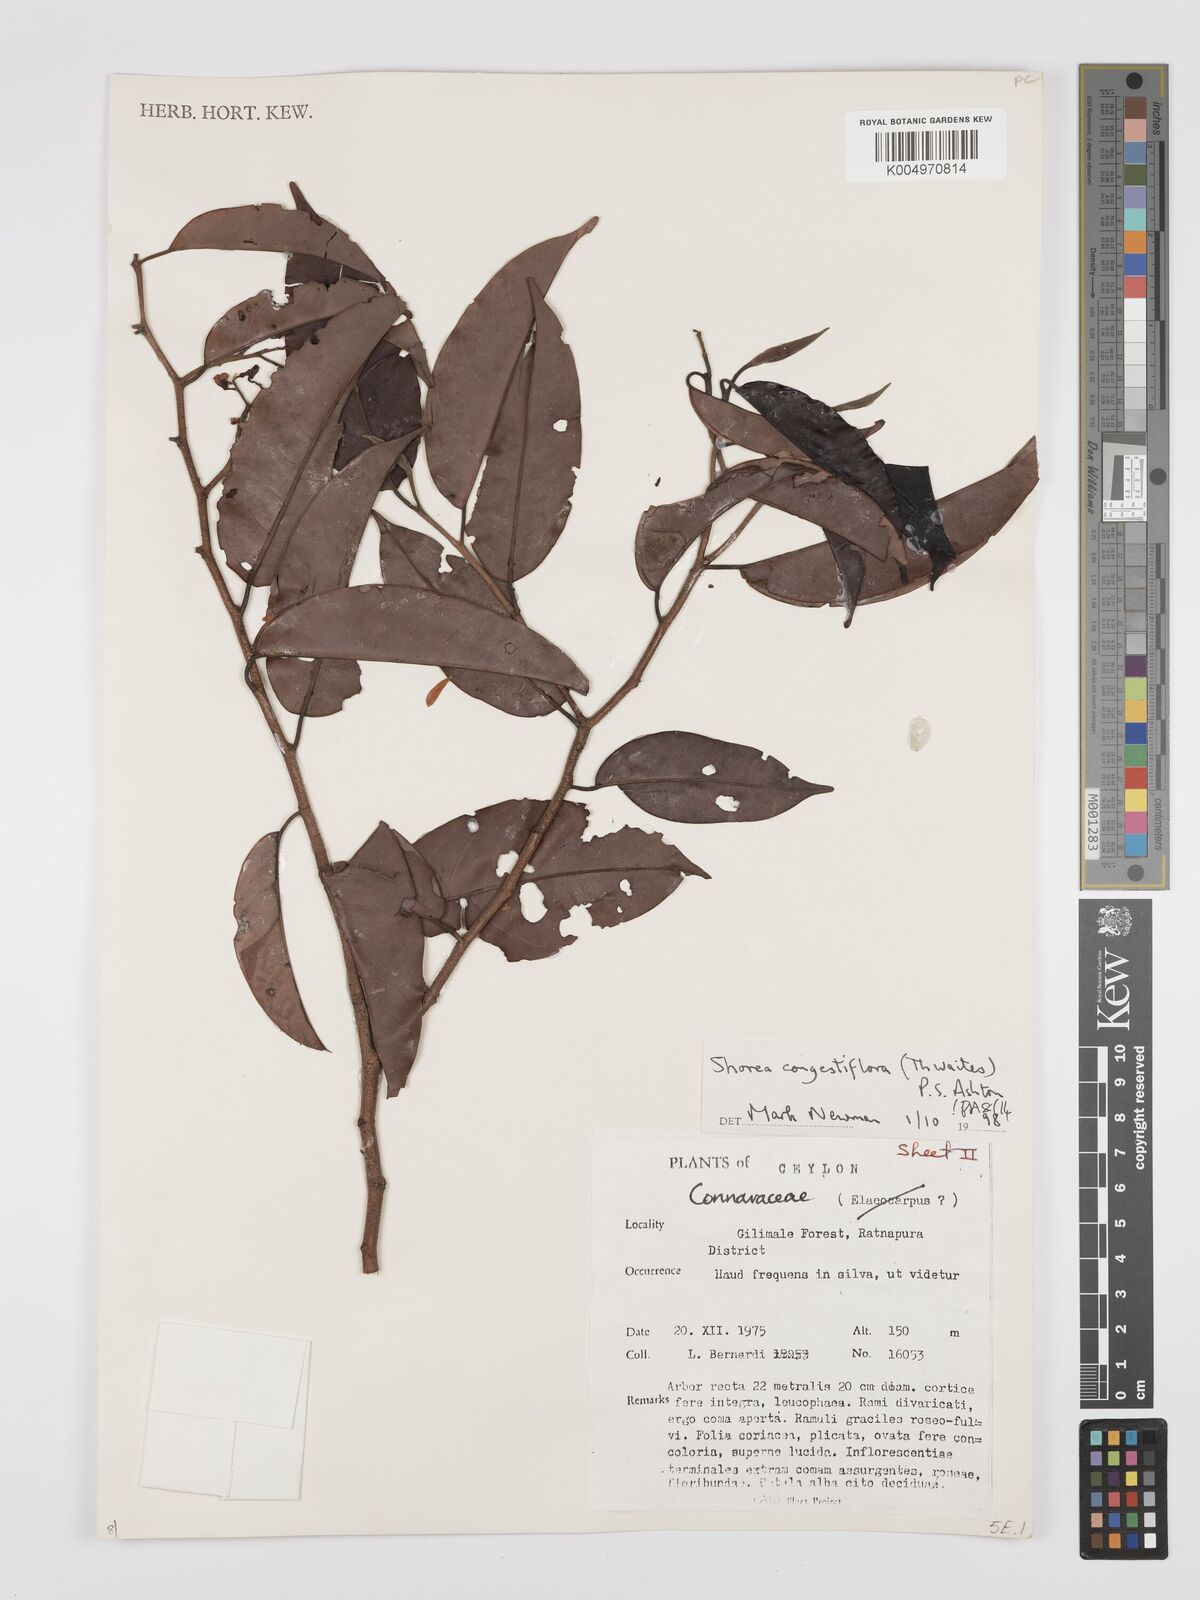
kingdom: Plantae
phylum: Tracheophyta
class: Magnoliopsida
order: Malvales
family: Dipterocarpaceae
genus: Doona
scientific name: Doona congestiflora
